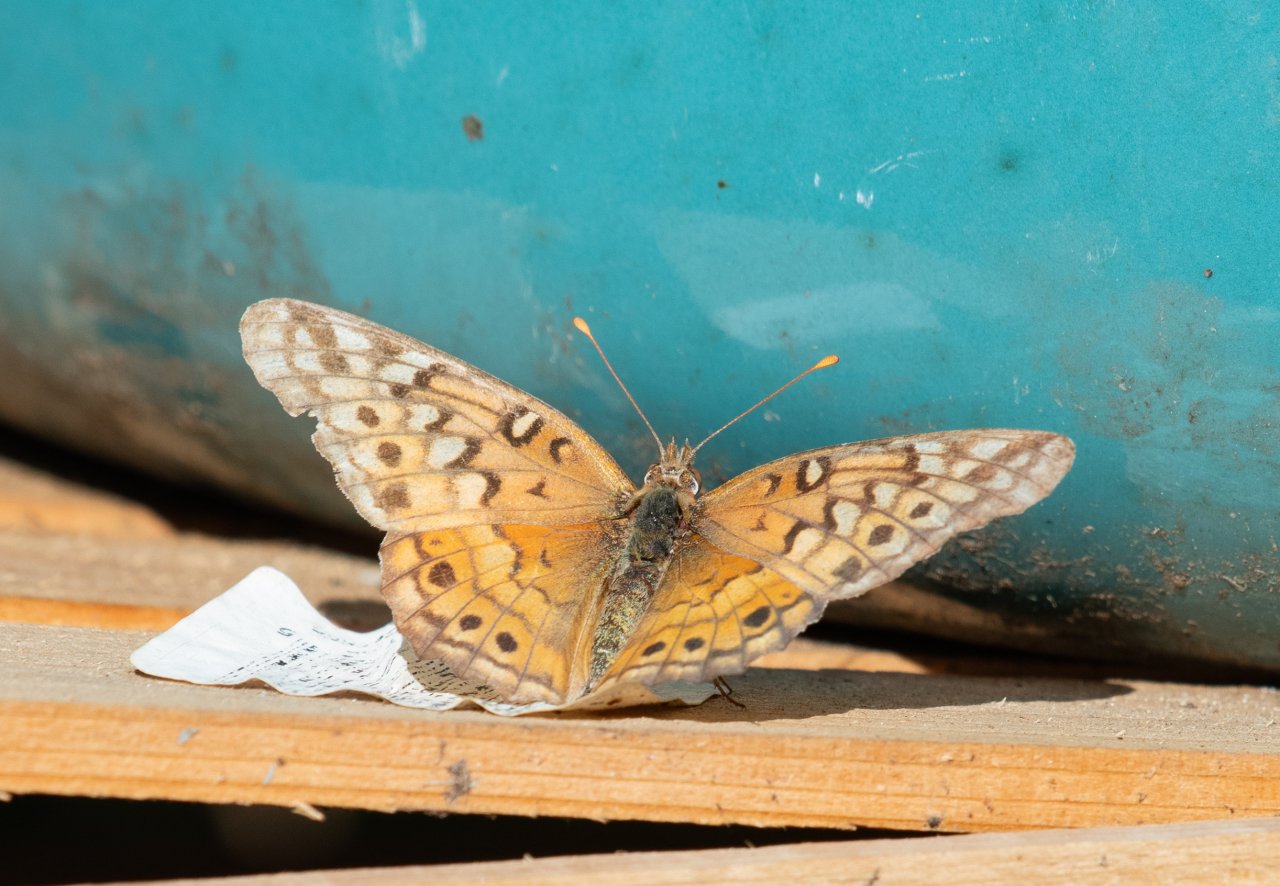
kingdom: Animalia
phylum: Arthropoda
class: Insecta
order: Lepidoptera
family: Nymphalidae
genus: Euptoieta
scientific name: Euptoieta claudia
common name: Variegated Fritillary
